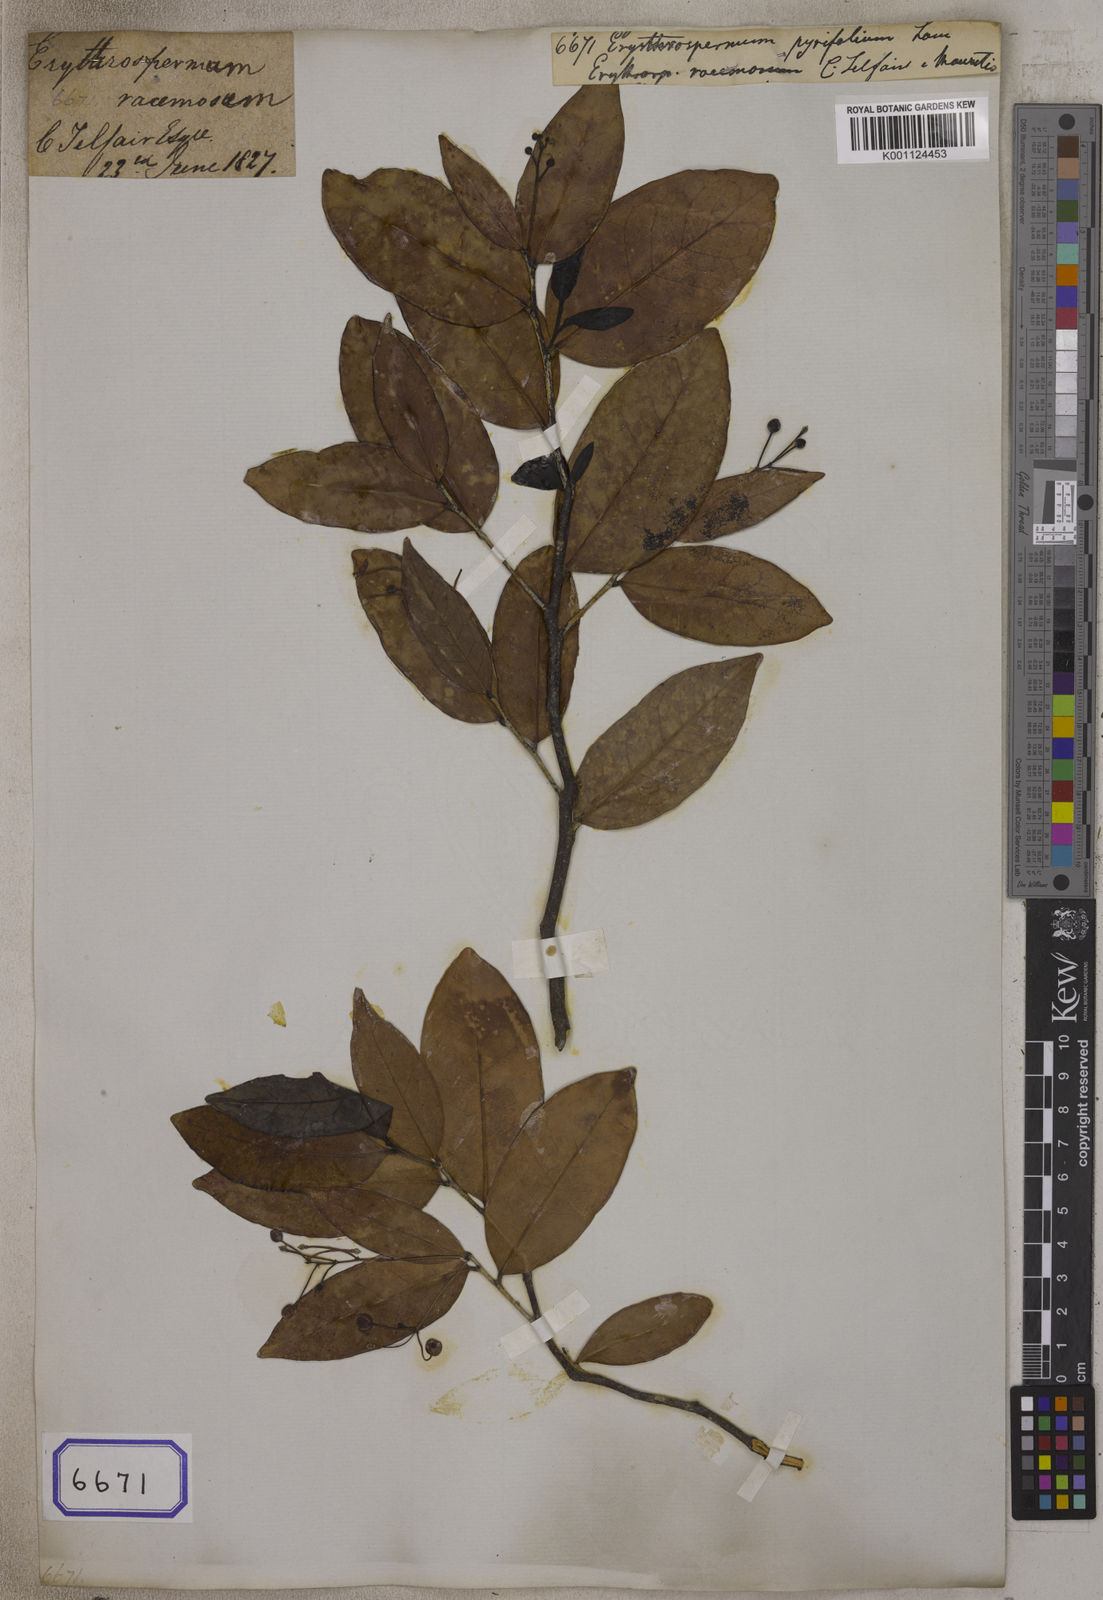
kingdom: Plantae
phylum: Tracheophyta
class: Magnoliopsida
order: Malpighiales
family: Achariaceae
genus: Erythrospermum
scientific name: Erythrospermum
